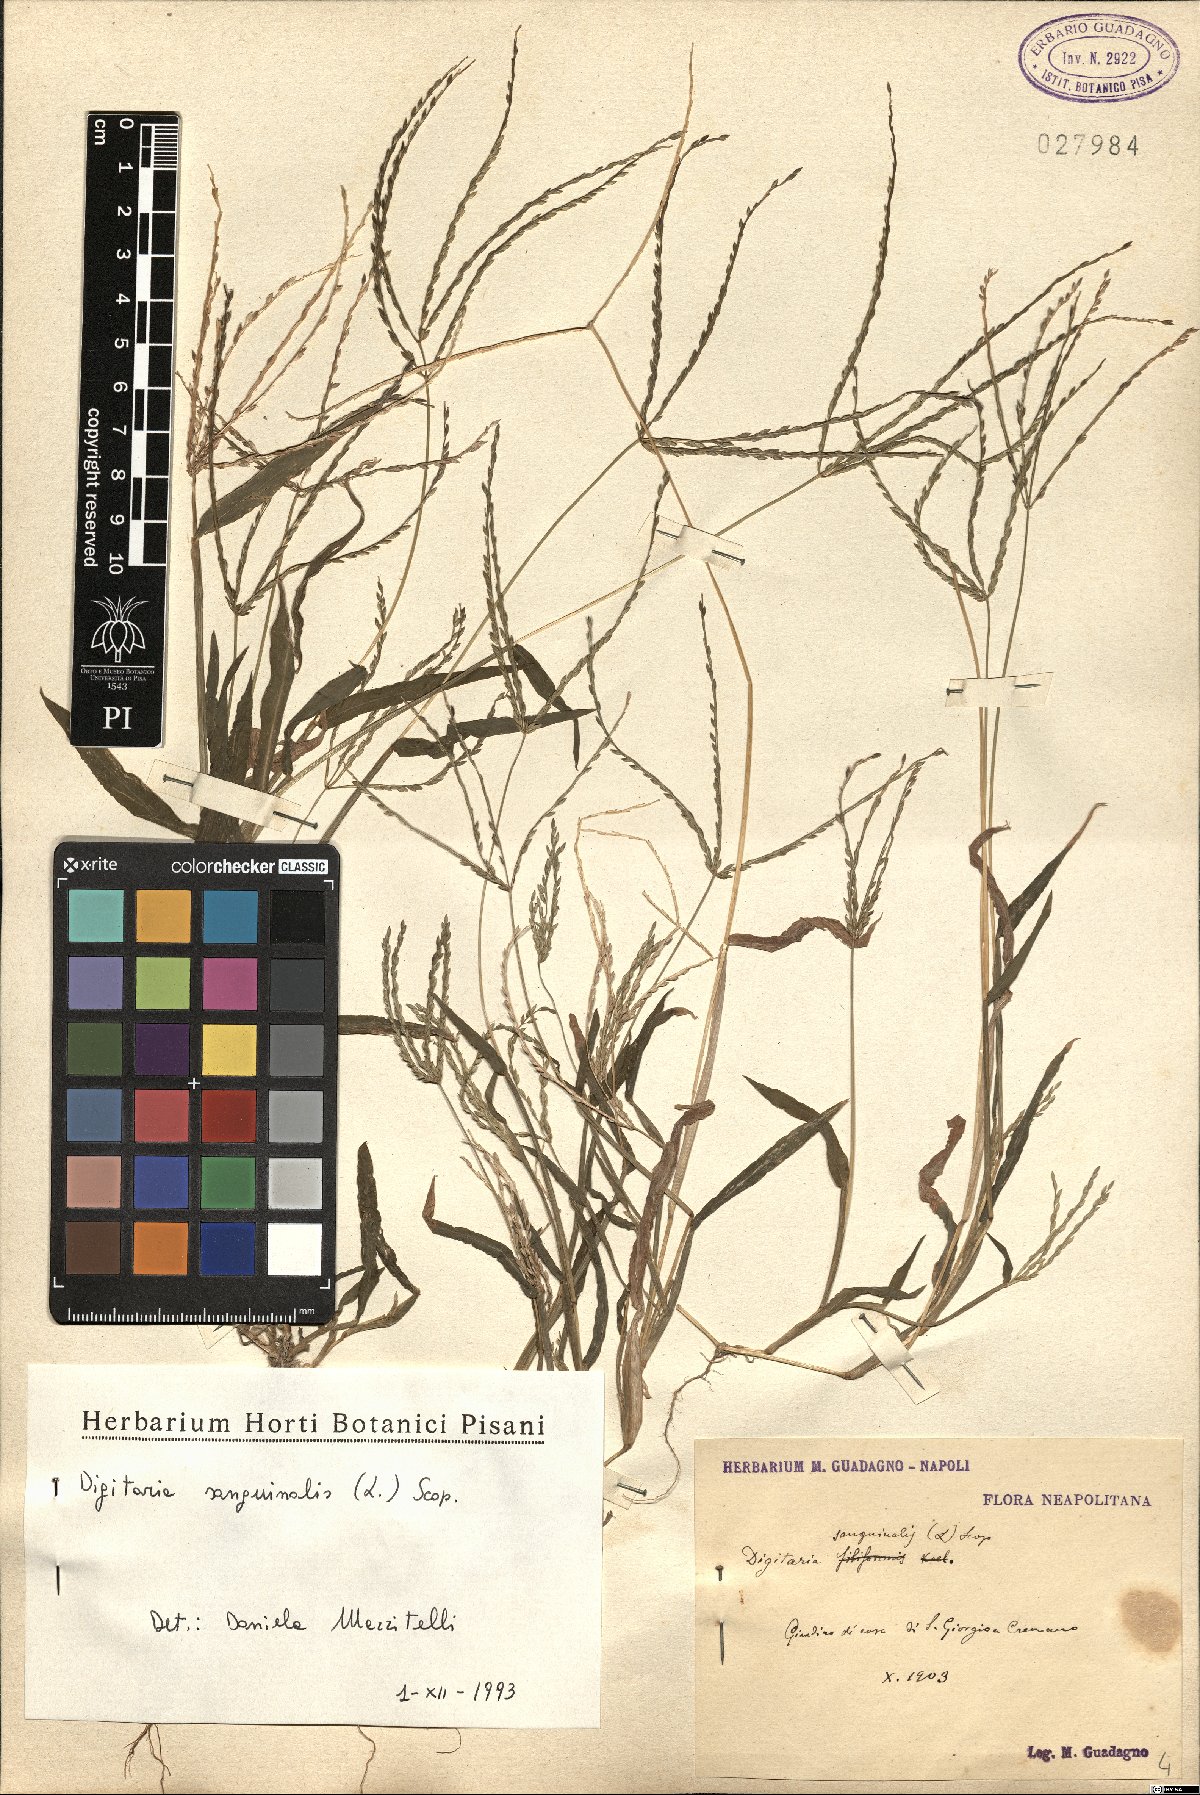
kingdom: Plantae
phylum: Tracheophyta
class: Liliopsida
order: Poales
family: Poaceae
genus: Digitaria
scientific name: Digitaria sanguinalis
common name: Hairy crabgrass
